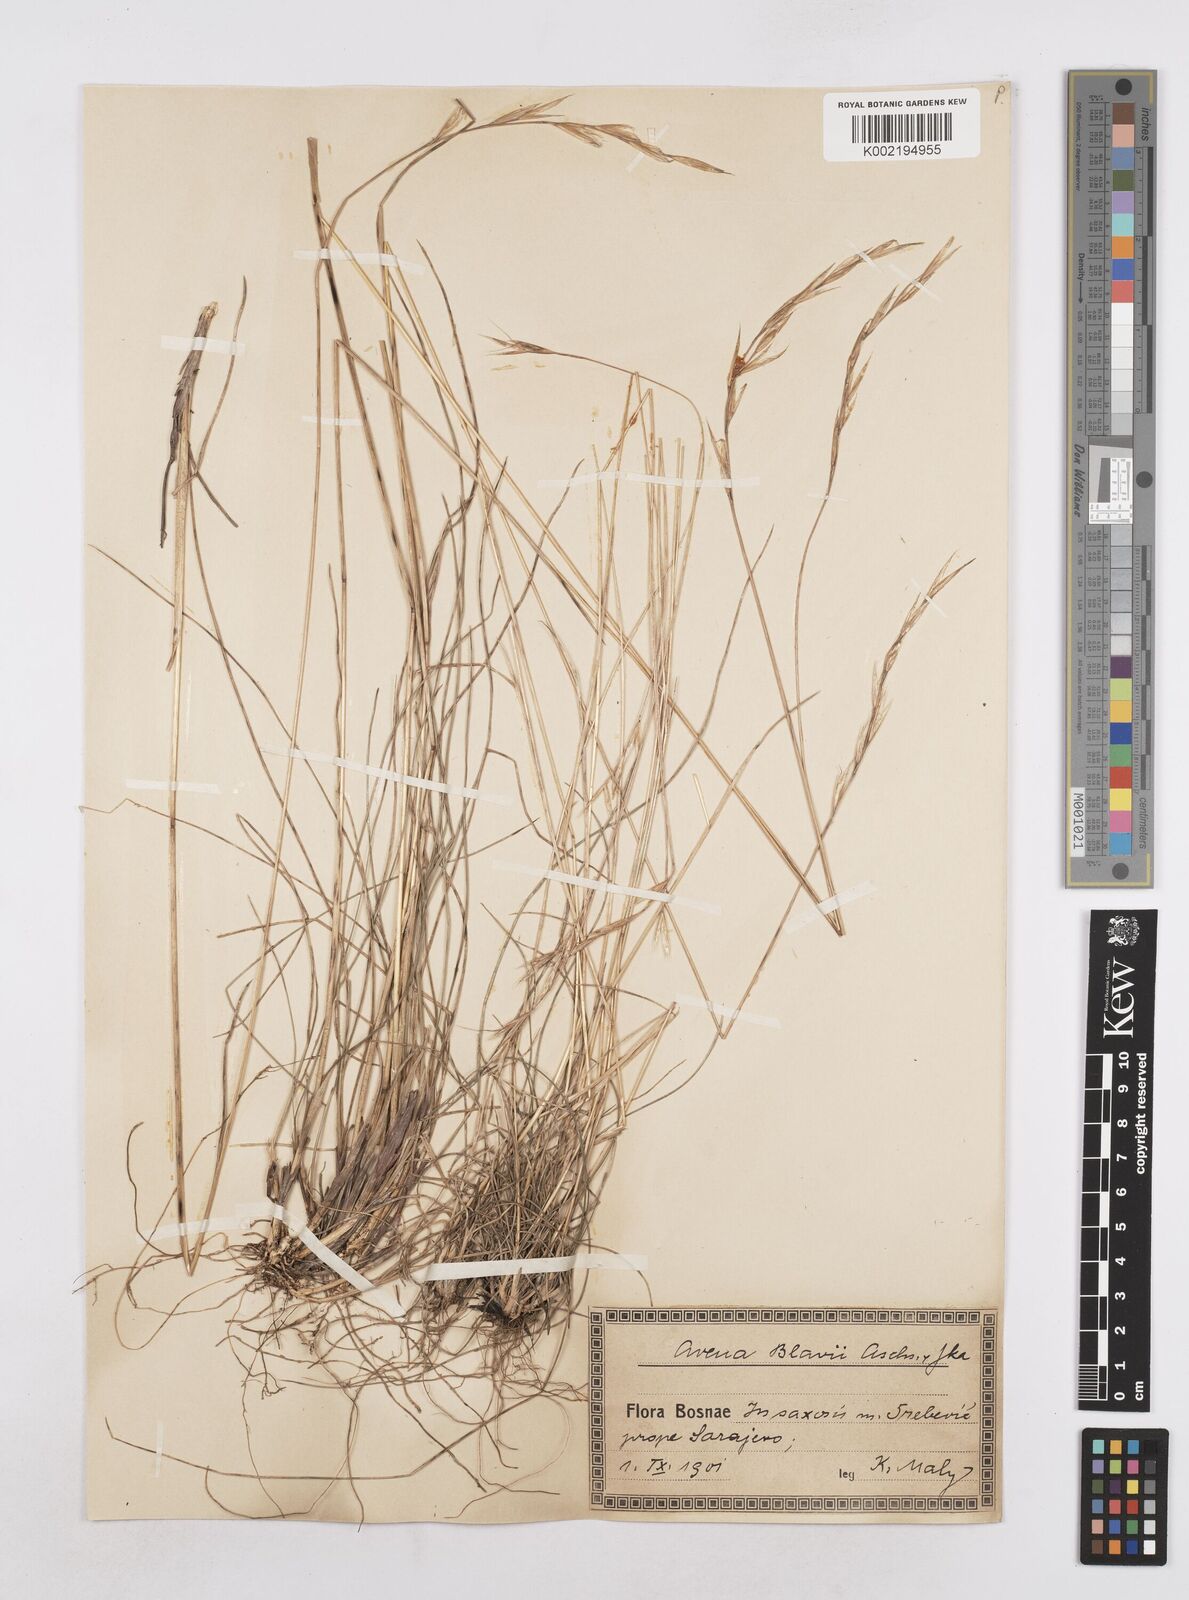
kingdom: Plantae
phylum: Tracheophyta
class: Liliopsida
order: Poales
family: Poaceae
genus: Helictochloa
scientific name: Helictochloa blaui
